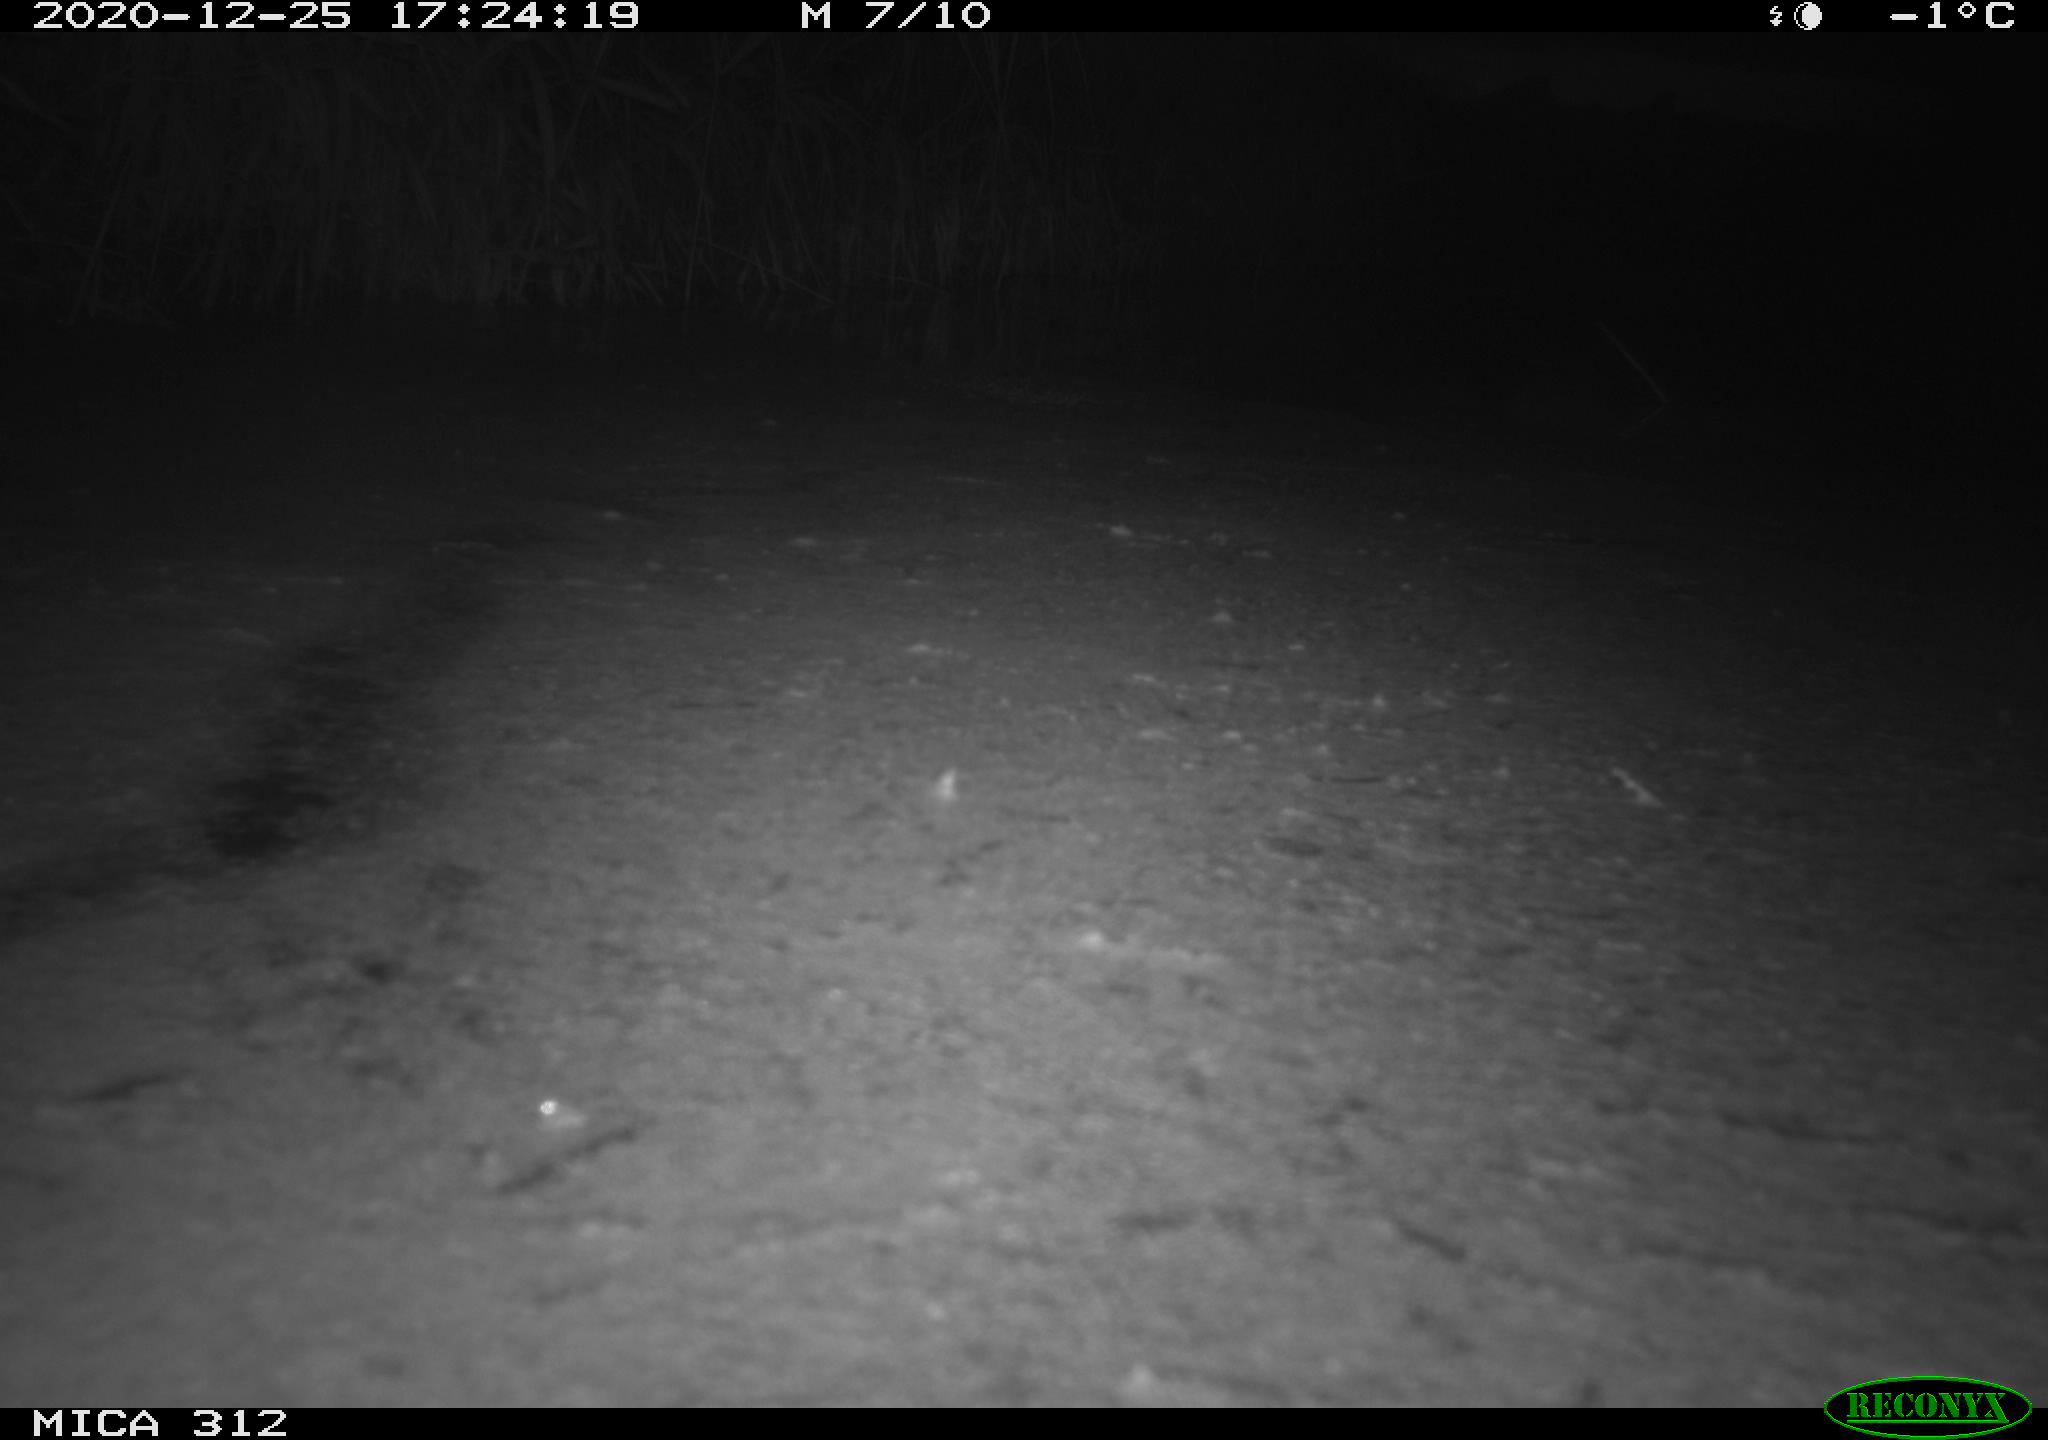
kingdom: Animalia
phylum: Chordata
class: Aves
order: Gruiformes
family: Rallidae
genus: Gallinula
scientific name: Gallinula chloropus
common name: Common moorhen
